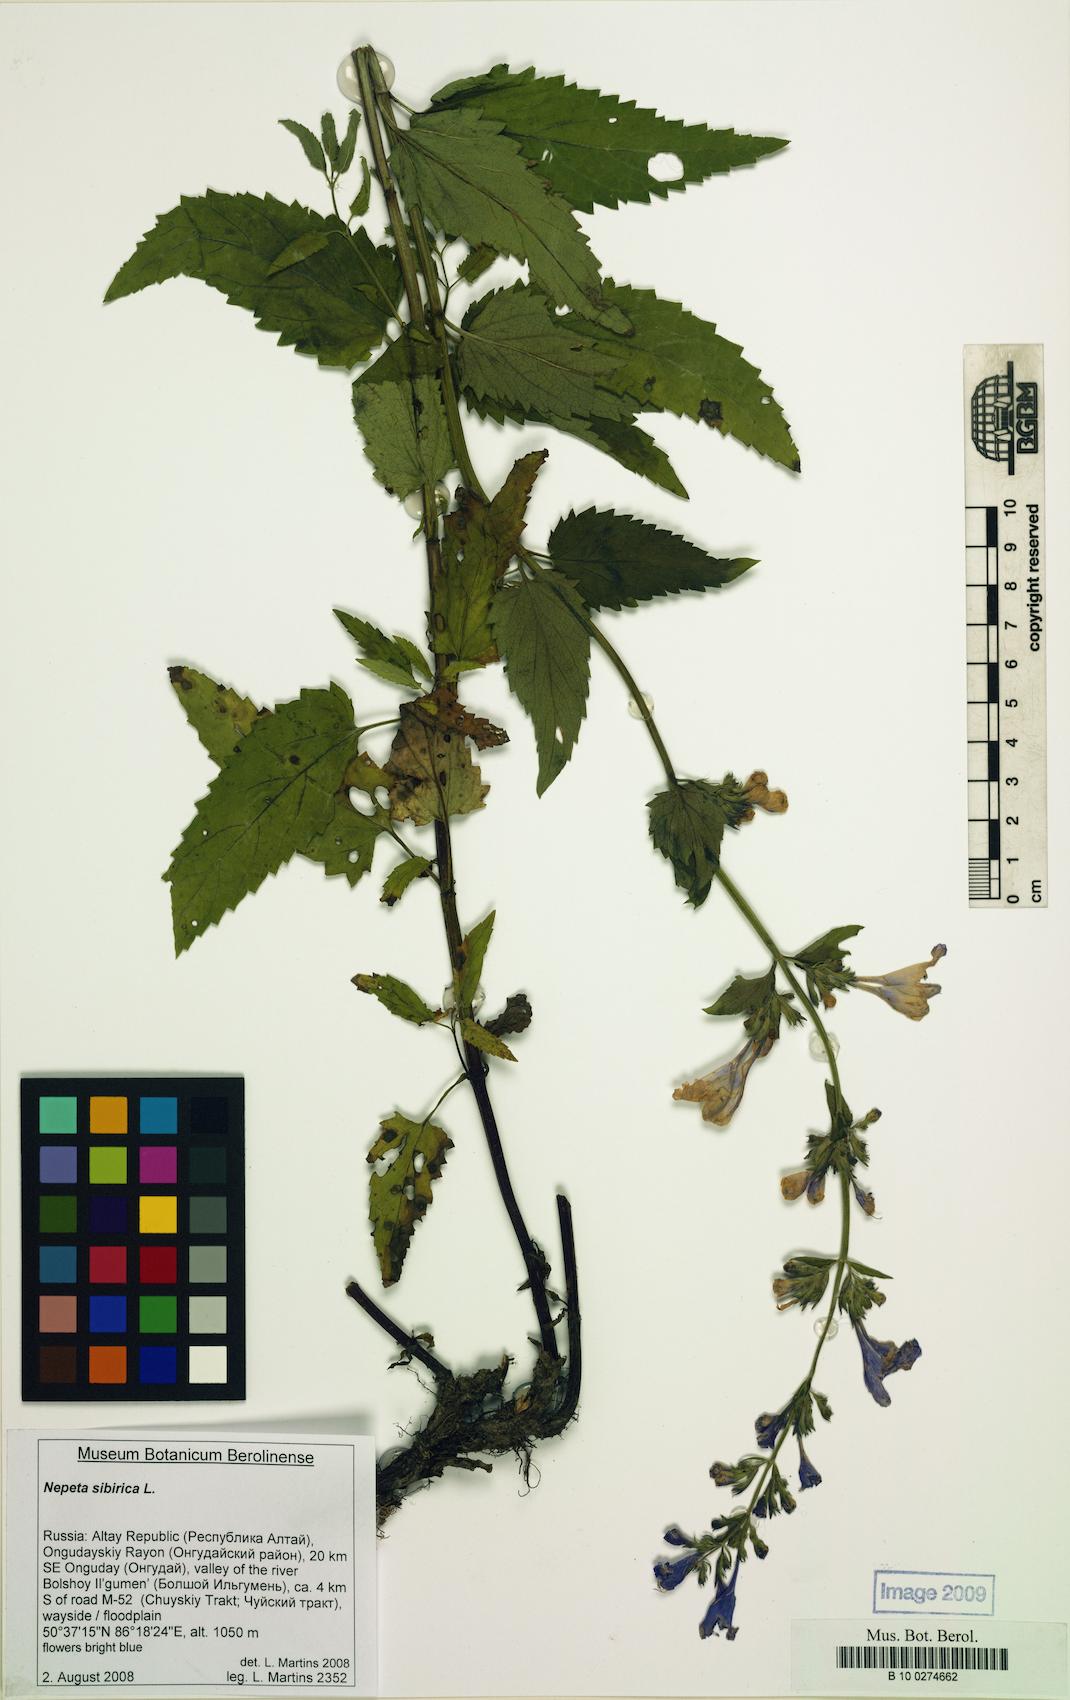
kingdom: Plantae
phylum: Tracheophyta
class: Magnoliopsida
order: Lamiales
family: Lamiaceae
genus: Nepeta
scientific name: Nepeta sibirica
